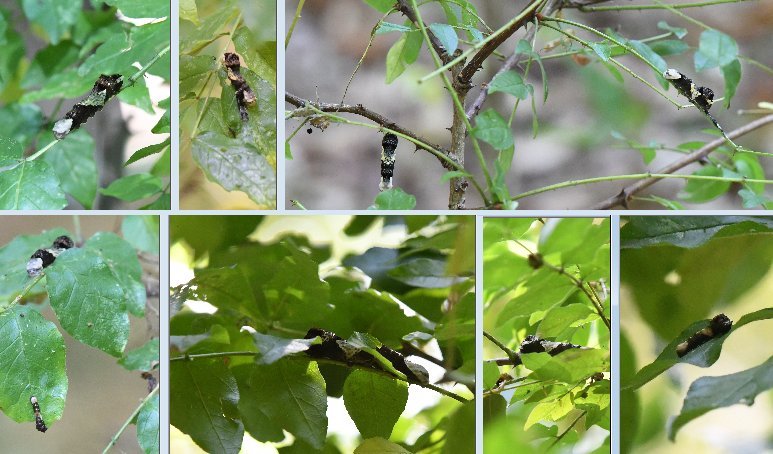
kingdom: Animalia
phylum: Arthropoda
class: Insecta
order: Lepidoptera
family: Papilionidae
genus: Papilio
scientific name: Papilio cresphontes
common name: Eastern Giant Swallowtail
